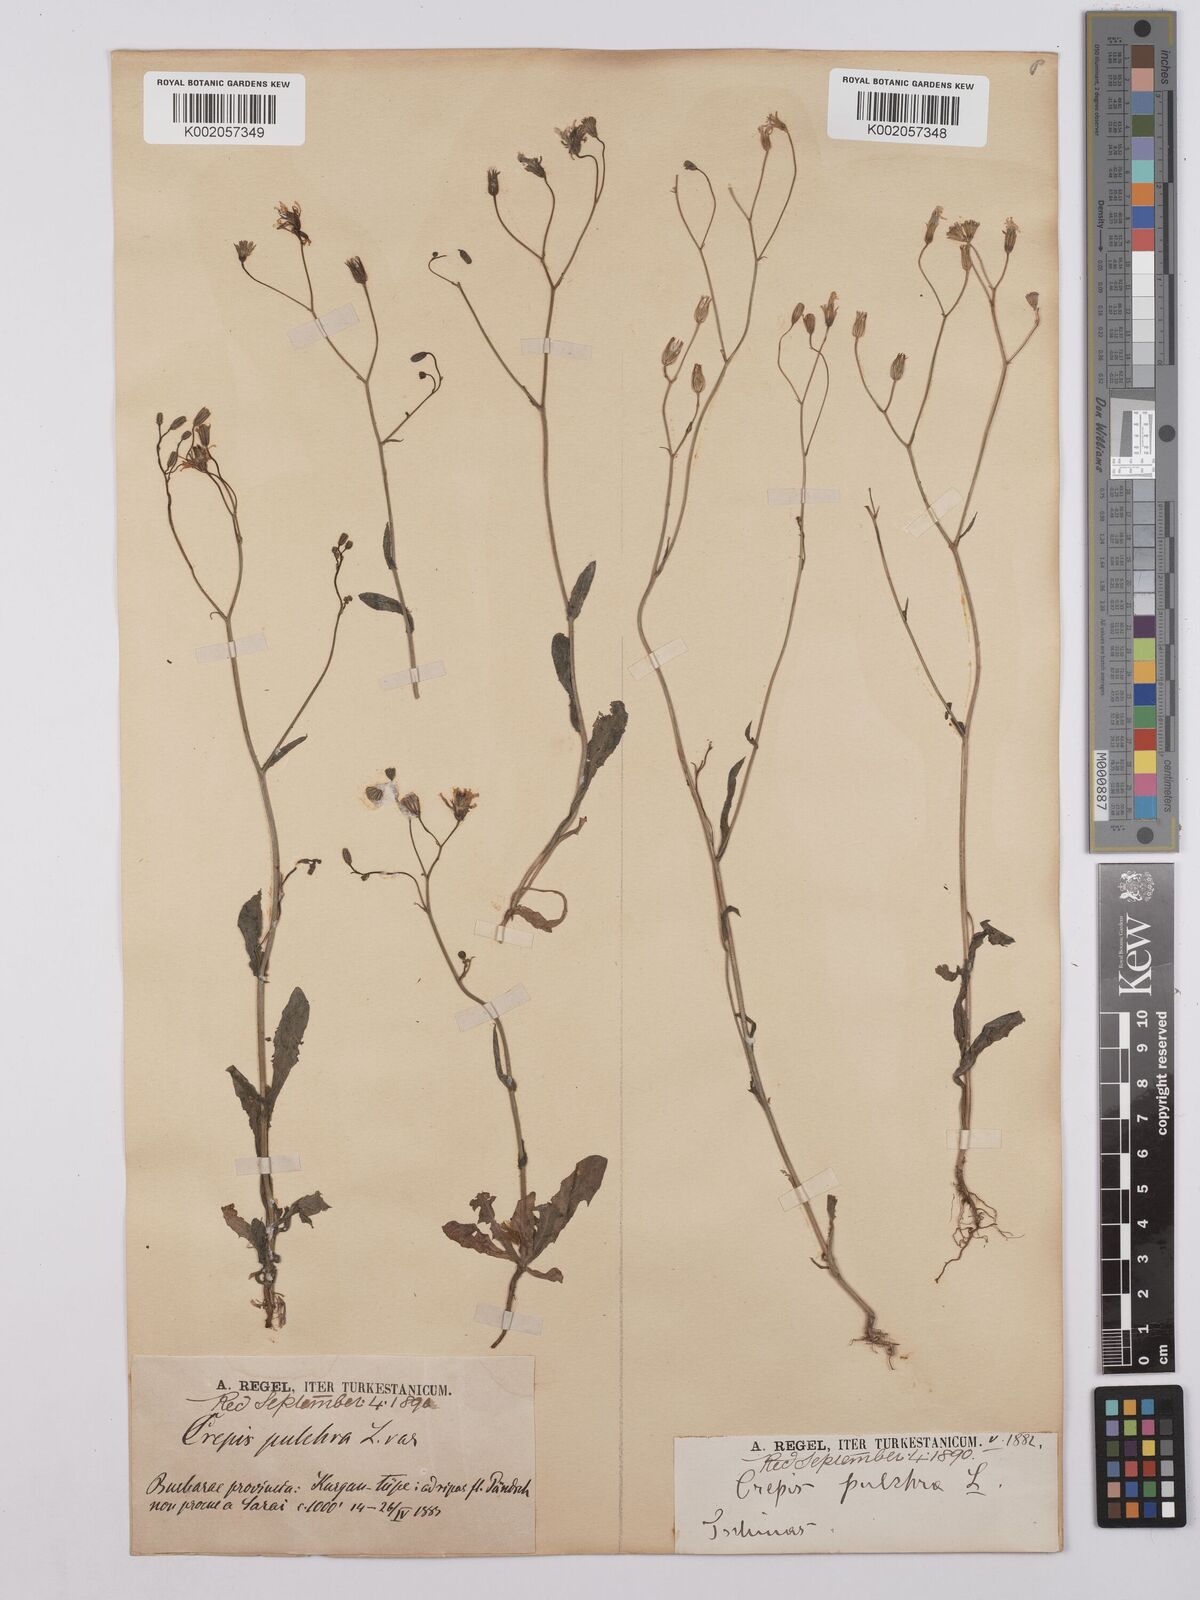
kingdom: Plantae
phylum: Tracheophyta
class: Magnoliopsida
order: Asterales
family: Asteraceae
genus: Crepis
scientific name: Crepis pulchra
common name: Hawk's-beard
